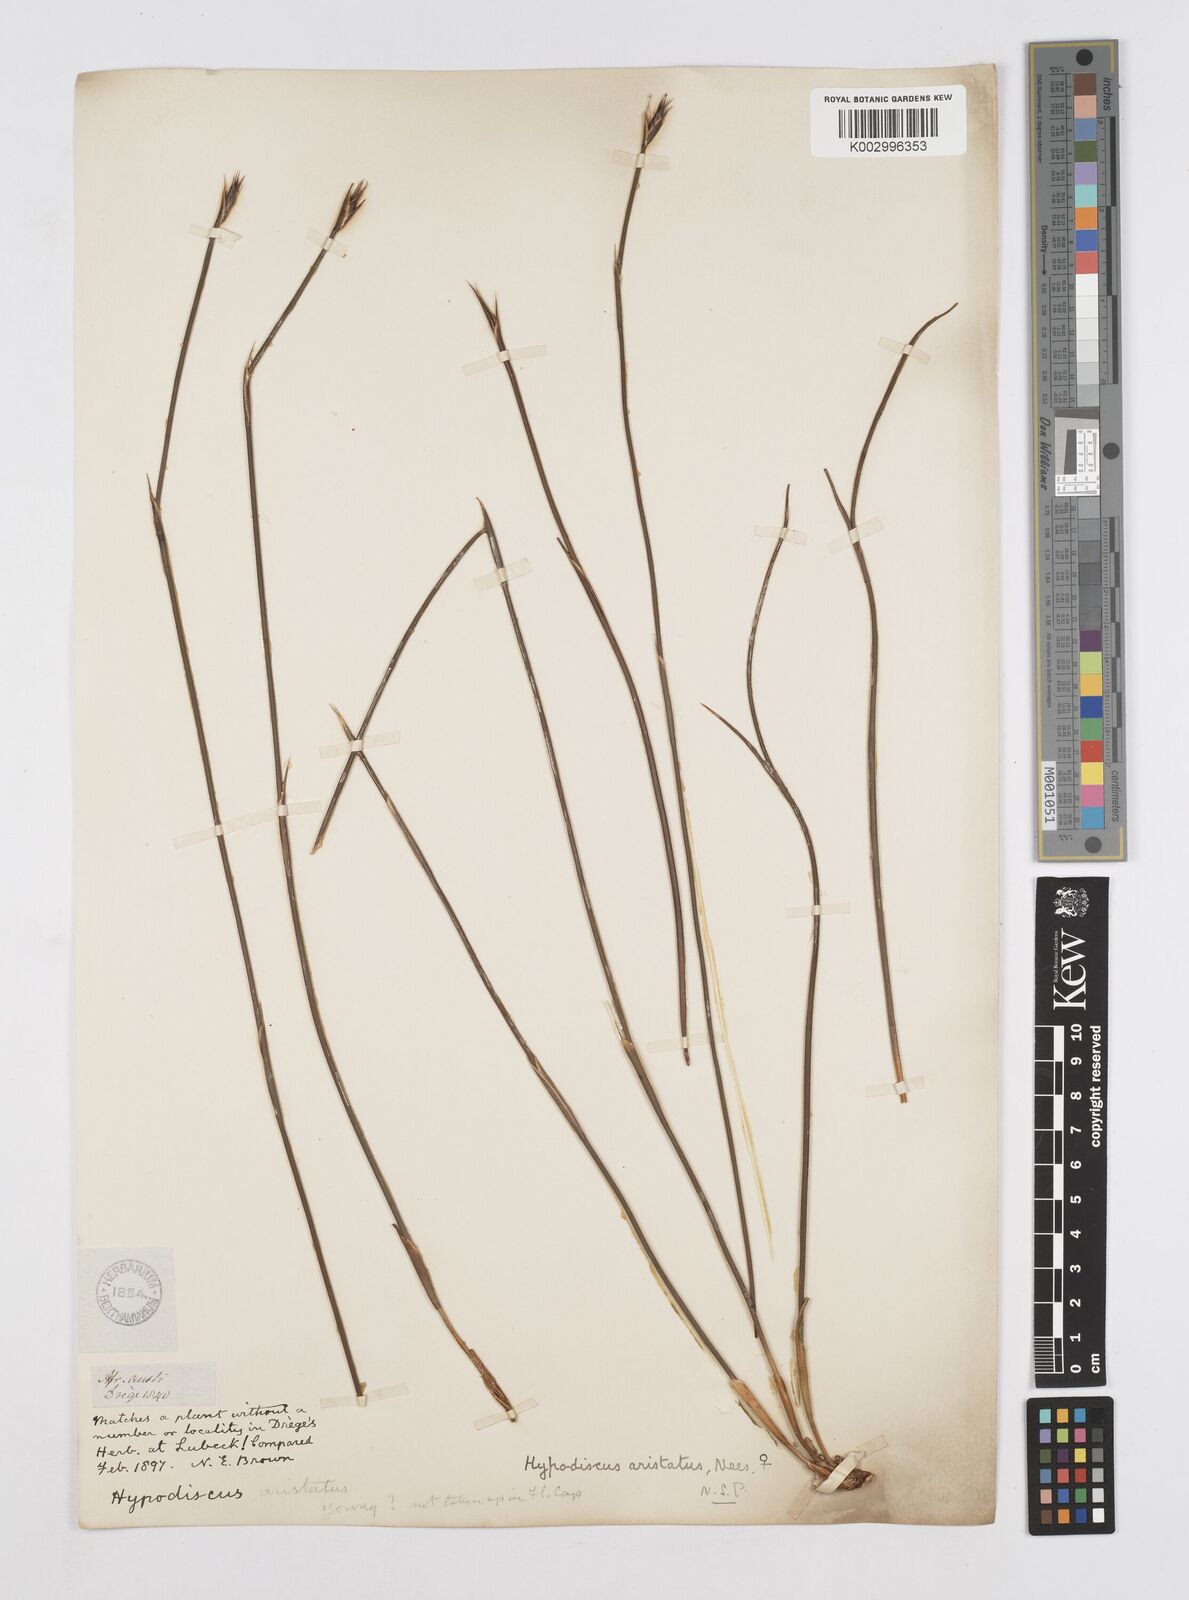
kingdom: Plantae
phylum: Tracheophyta
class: Liliopsida
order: Poales
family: Restionaceae
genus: Hypodiscus
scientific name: Hypodiscus aristatus
